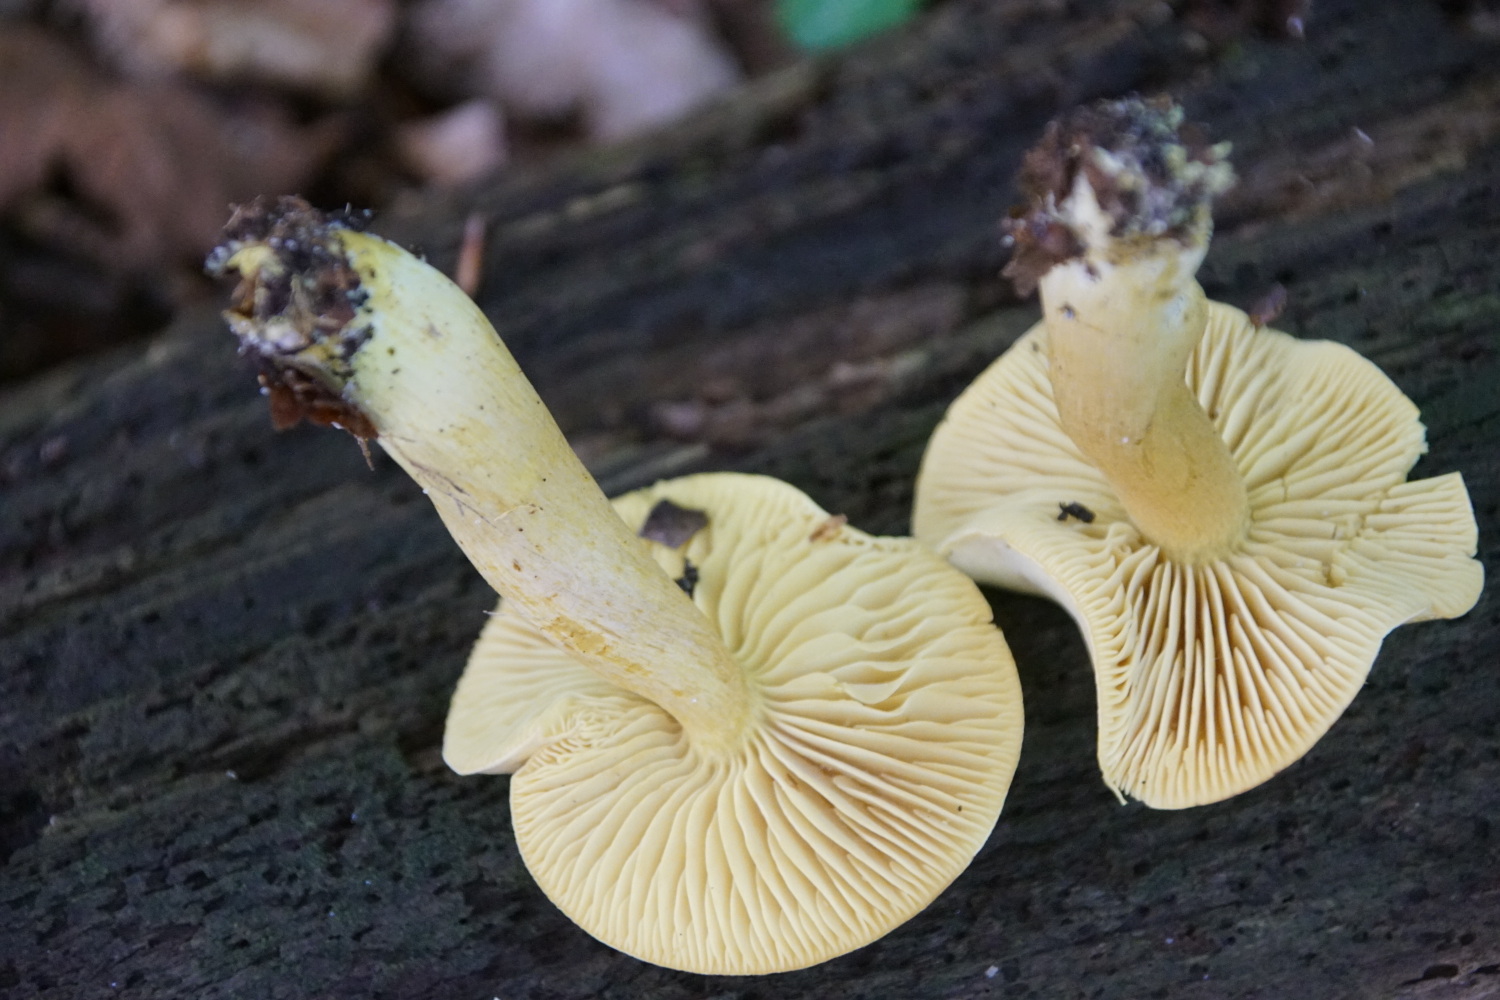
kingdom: Fungi
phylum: Basidiomycota
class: Agaricomycetes
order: Agaricales
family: Tricholomataceae
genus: Tricholoma
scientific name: Tricholoma sulphureum
